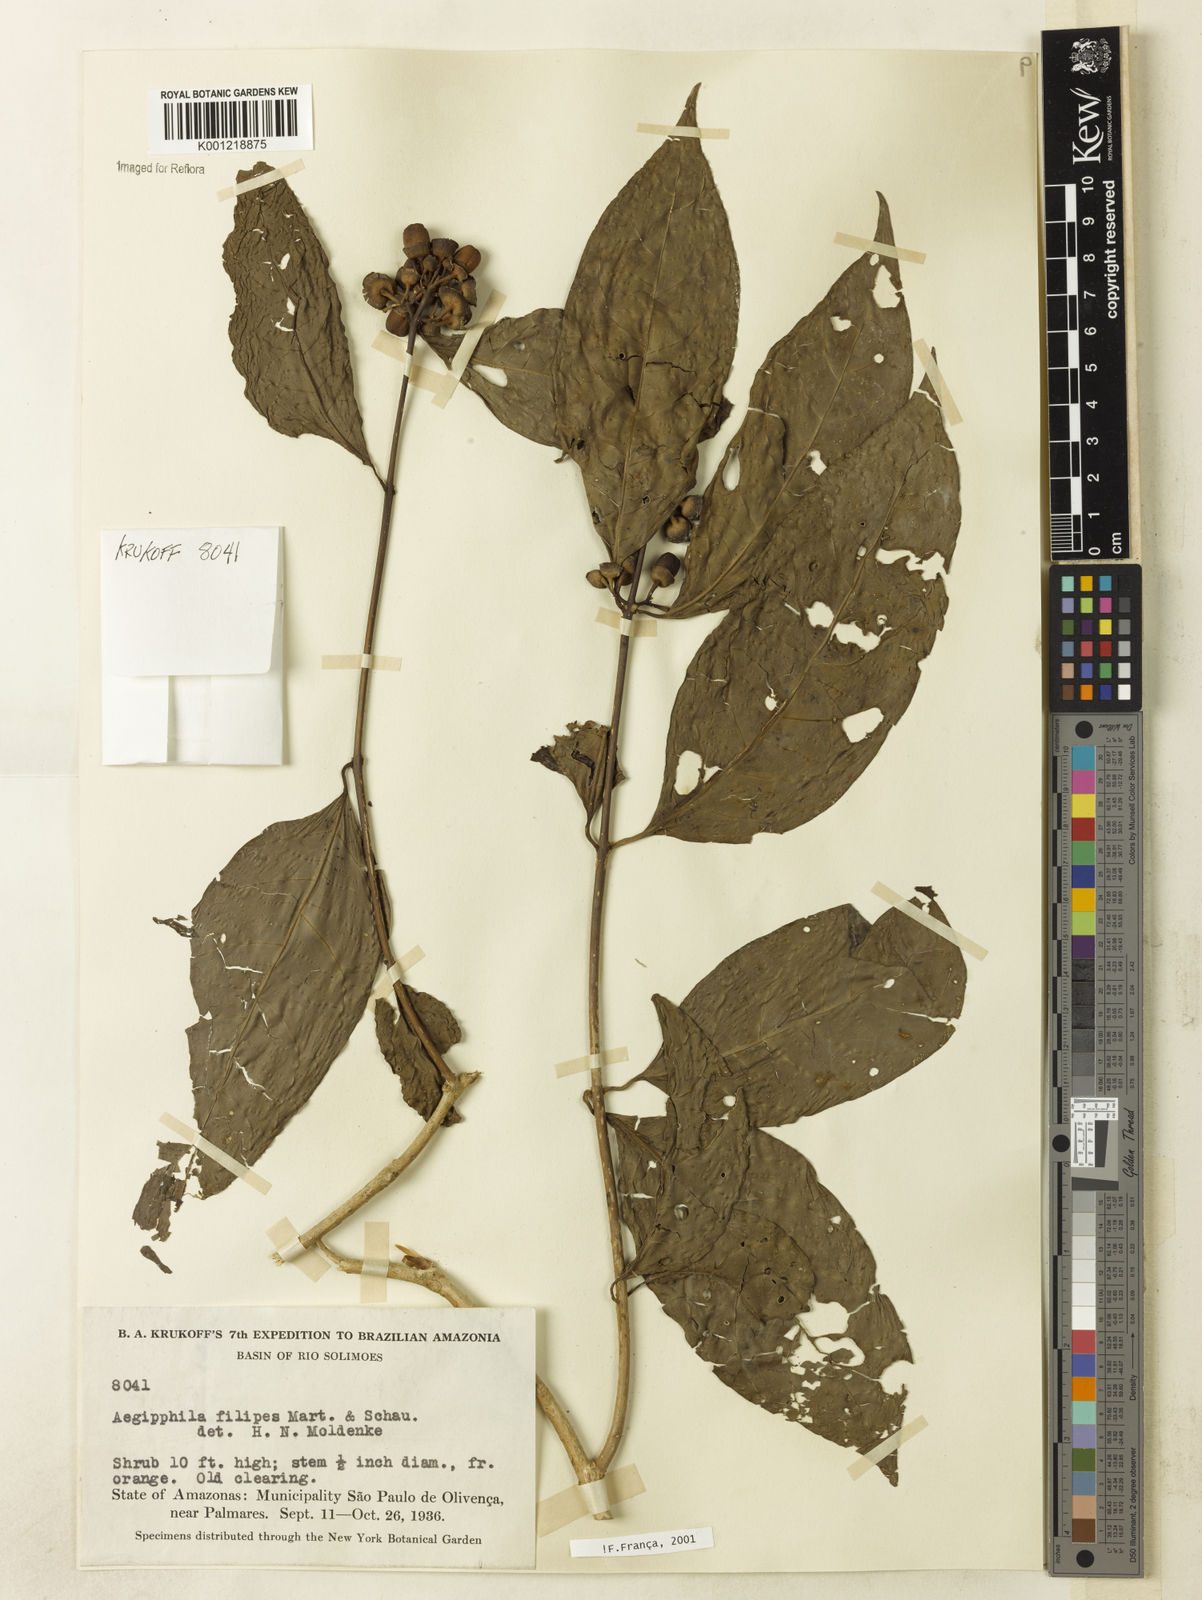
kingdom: Plantae
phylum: Tracheophyta
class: Magnoliopsida
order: Lamiales
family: Lamiaceae
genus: Aegiphila
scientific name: Aegiphila filipes
